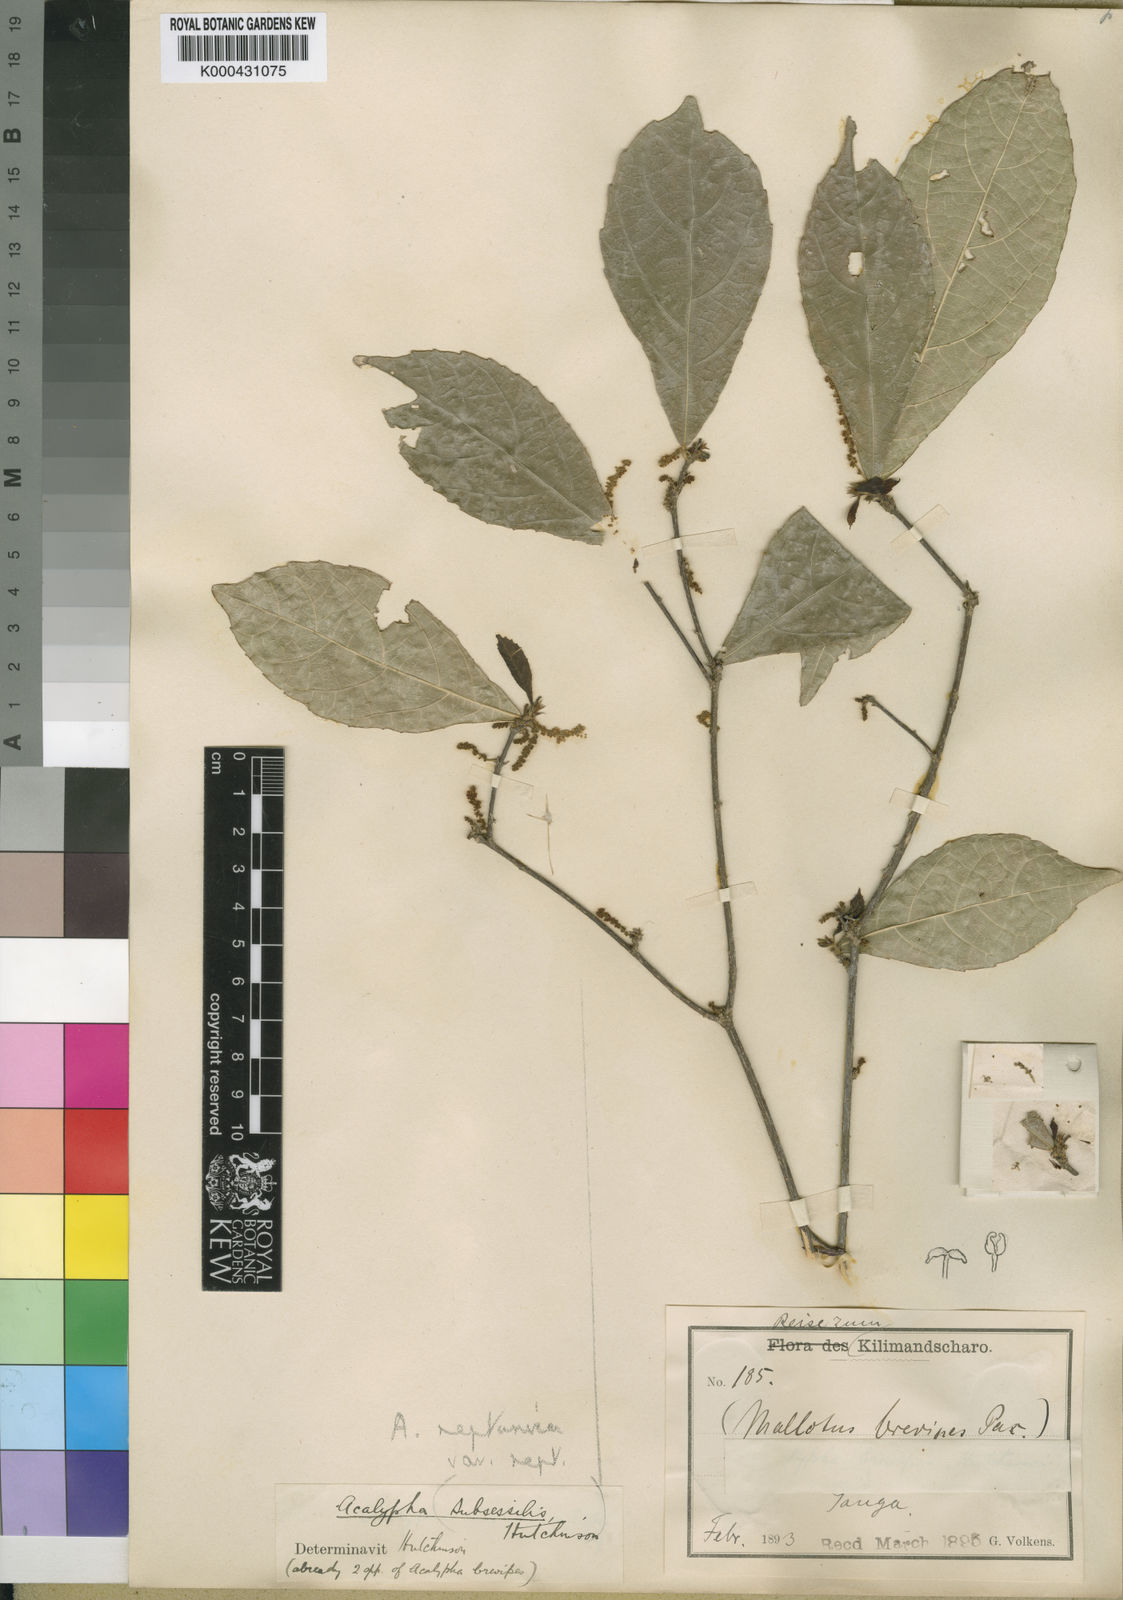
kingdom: Plantae
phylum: Tracheophyta
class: Magnoliopsida
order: Malpighiales
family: Euphorbiaceae
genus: Acalypha
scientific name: Acalypha neptunica
